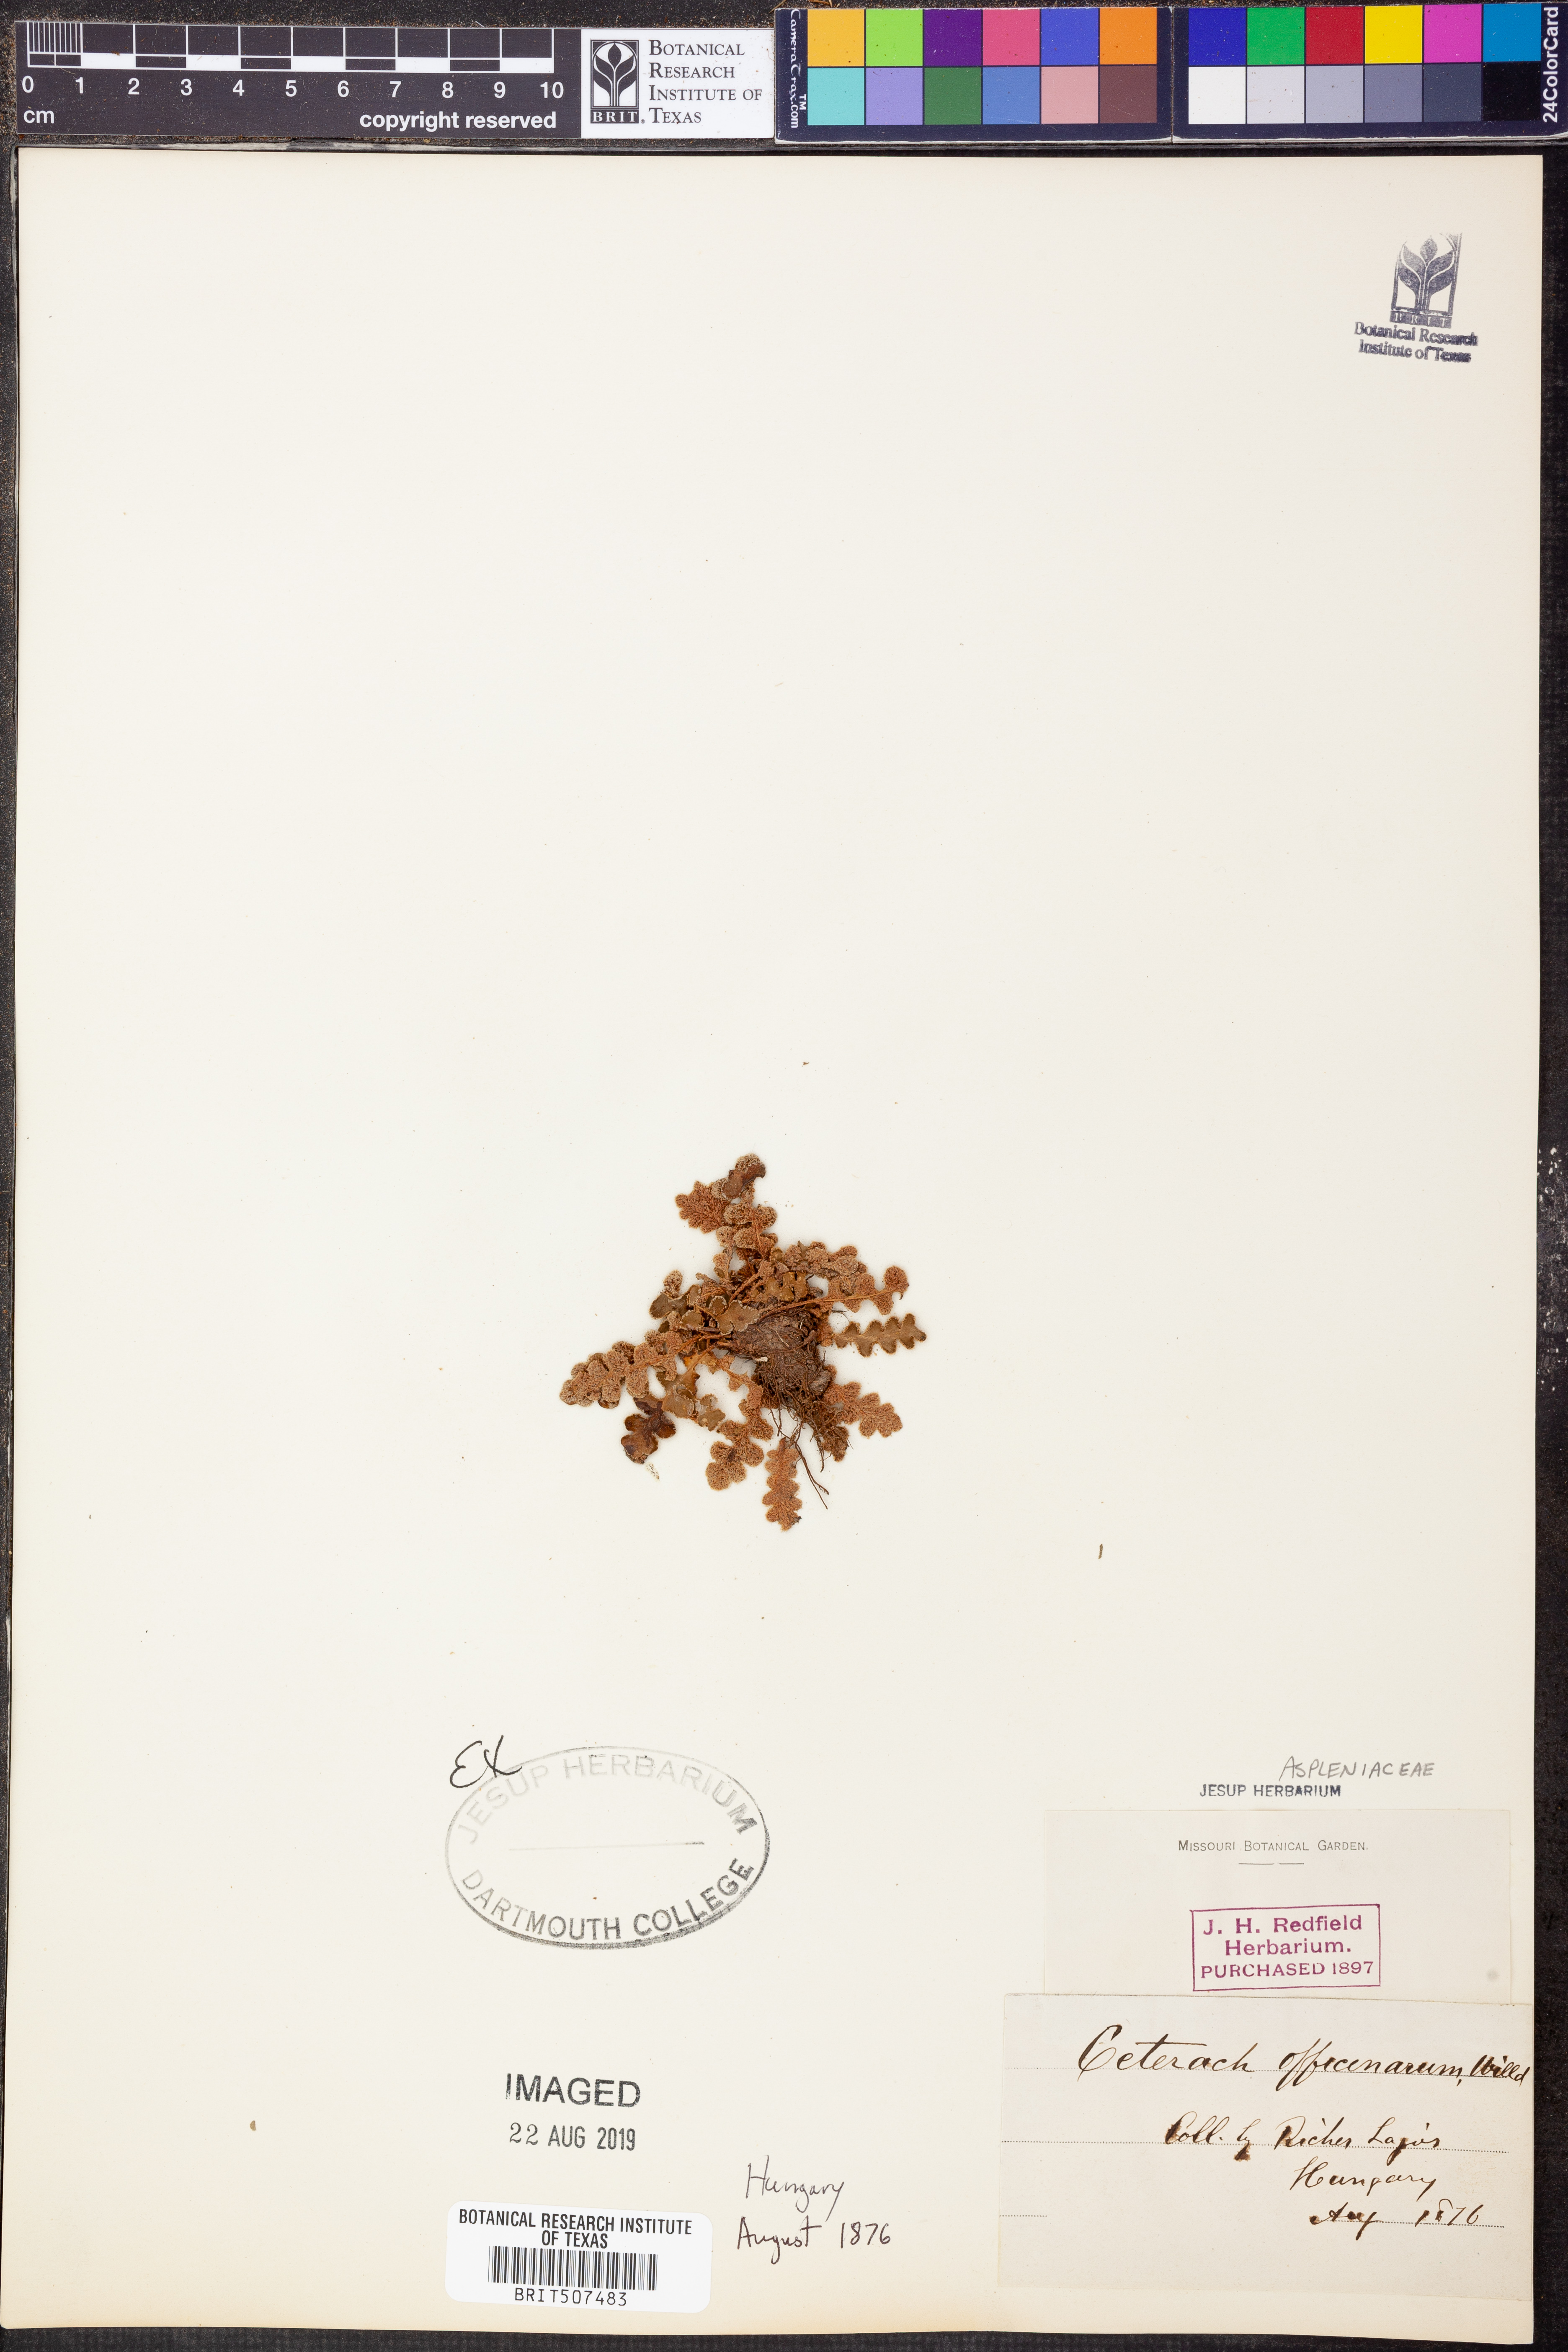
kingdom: Plantae
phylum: Tracheophyta
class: Polypodiopsida
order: Polypodiales
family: Aspleniaceae
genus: Asplenium
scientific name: Asplenium ceterach
